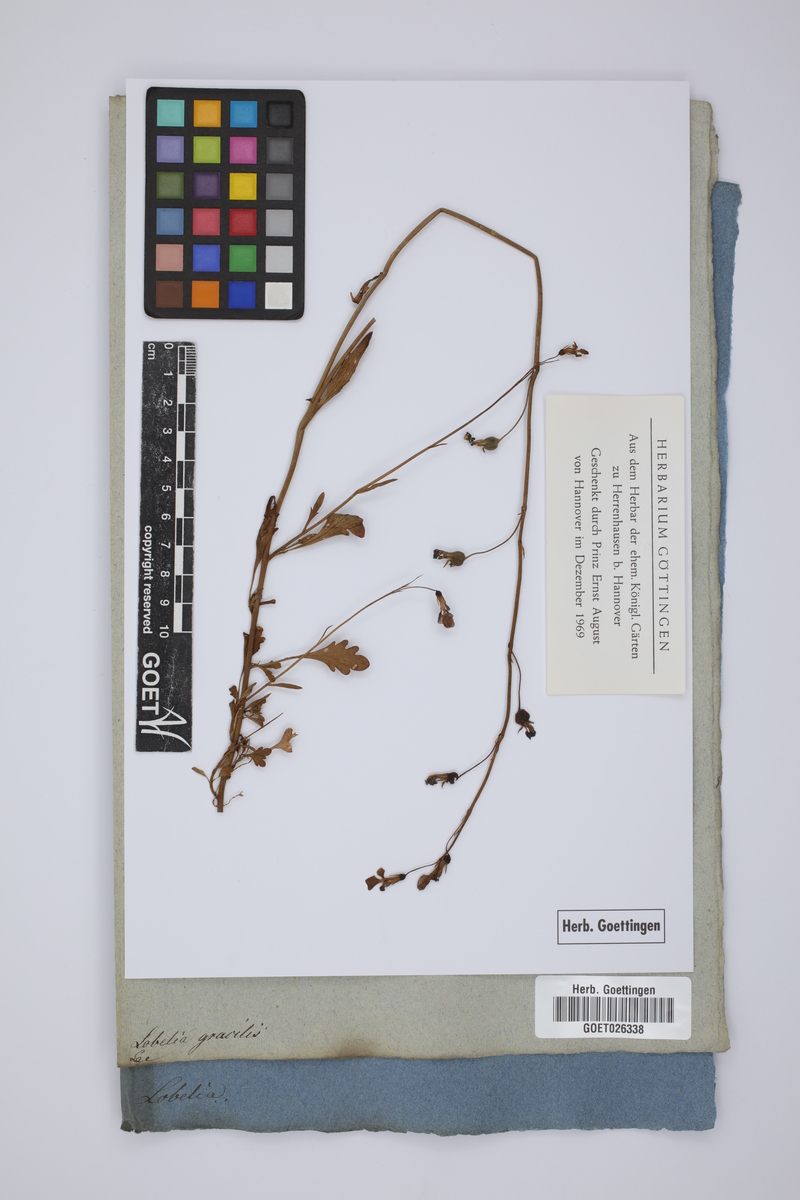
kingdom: Plantae
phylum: Tracheophyta
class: Magnoliopsida
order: Asterales
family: Campanulaceae
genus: Lobelia
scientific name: Lobelia andrewsii
